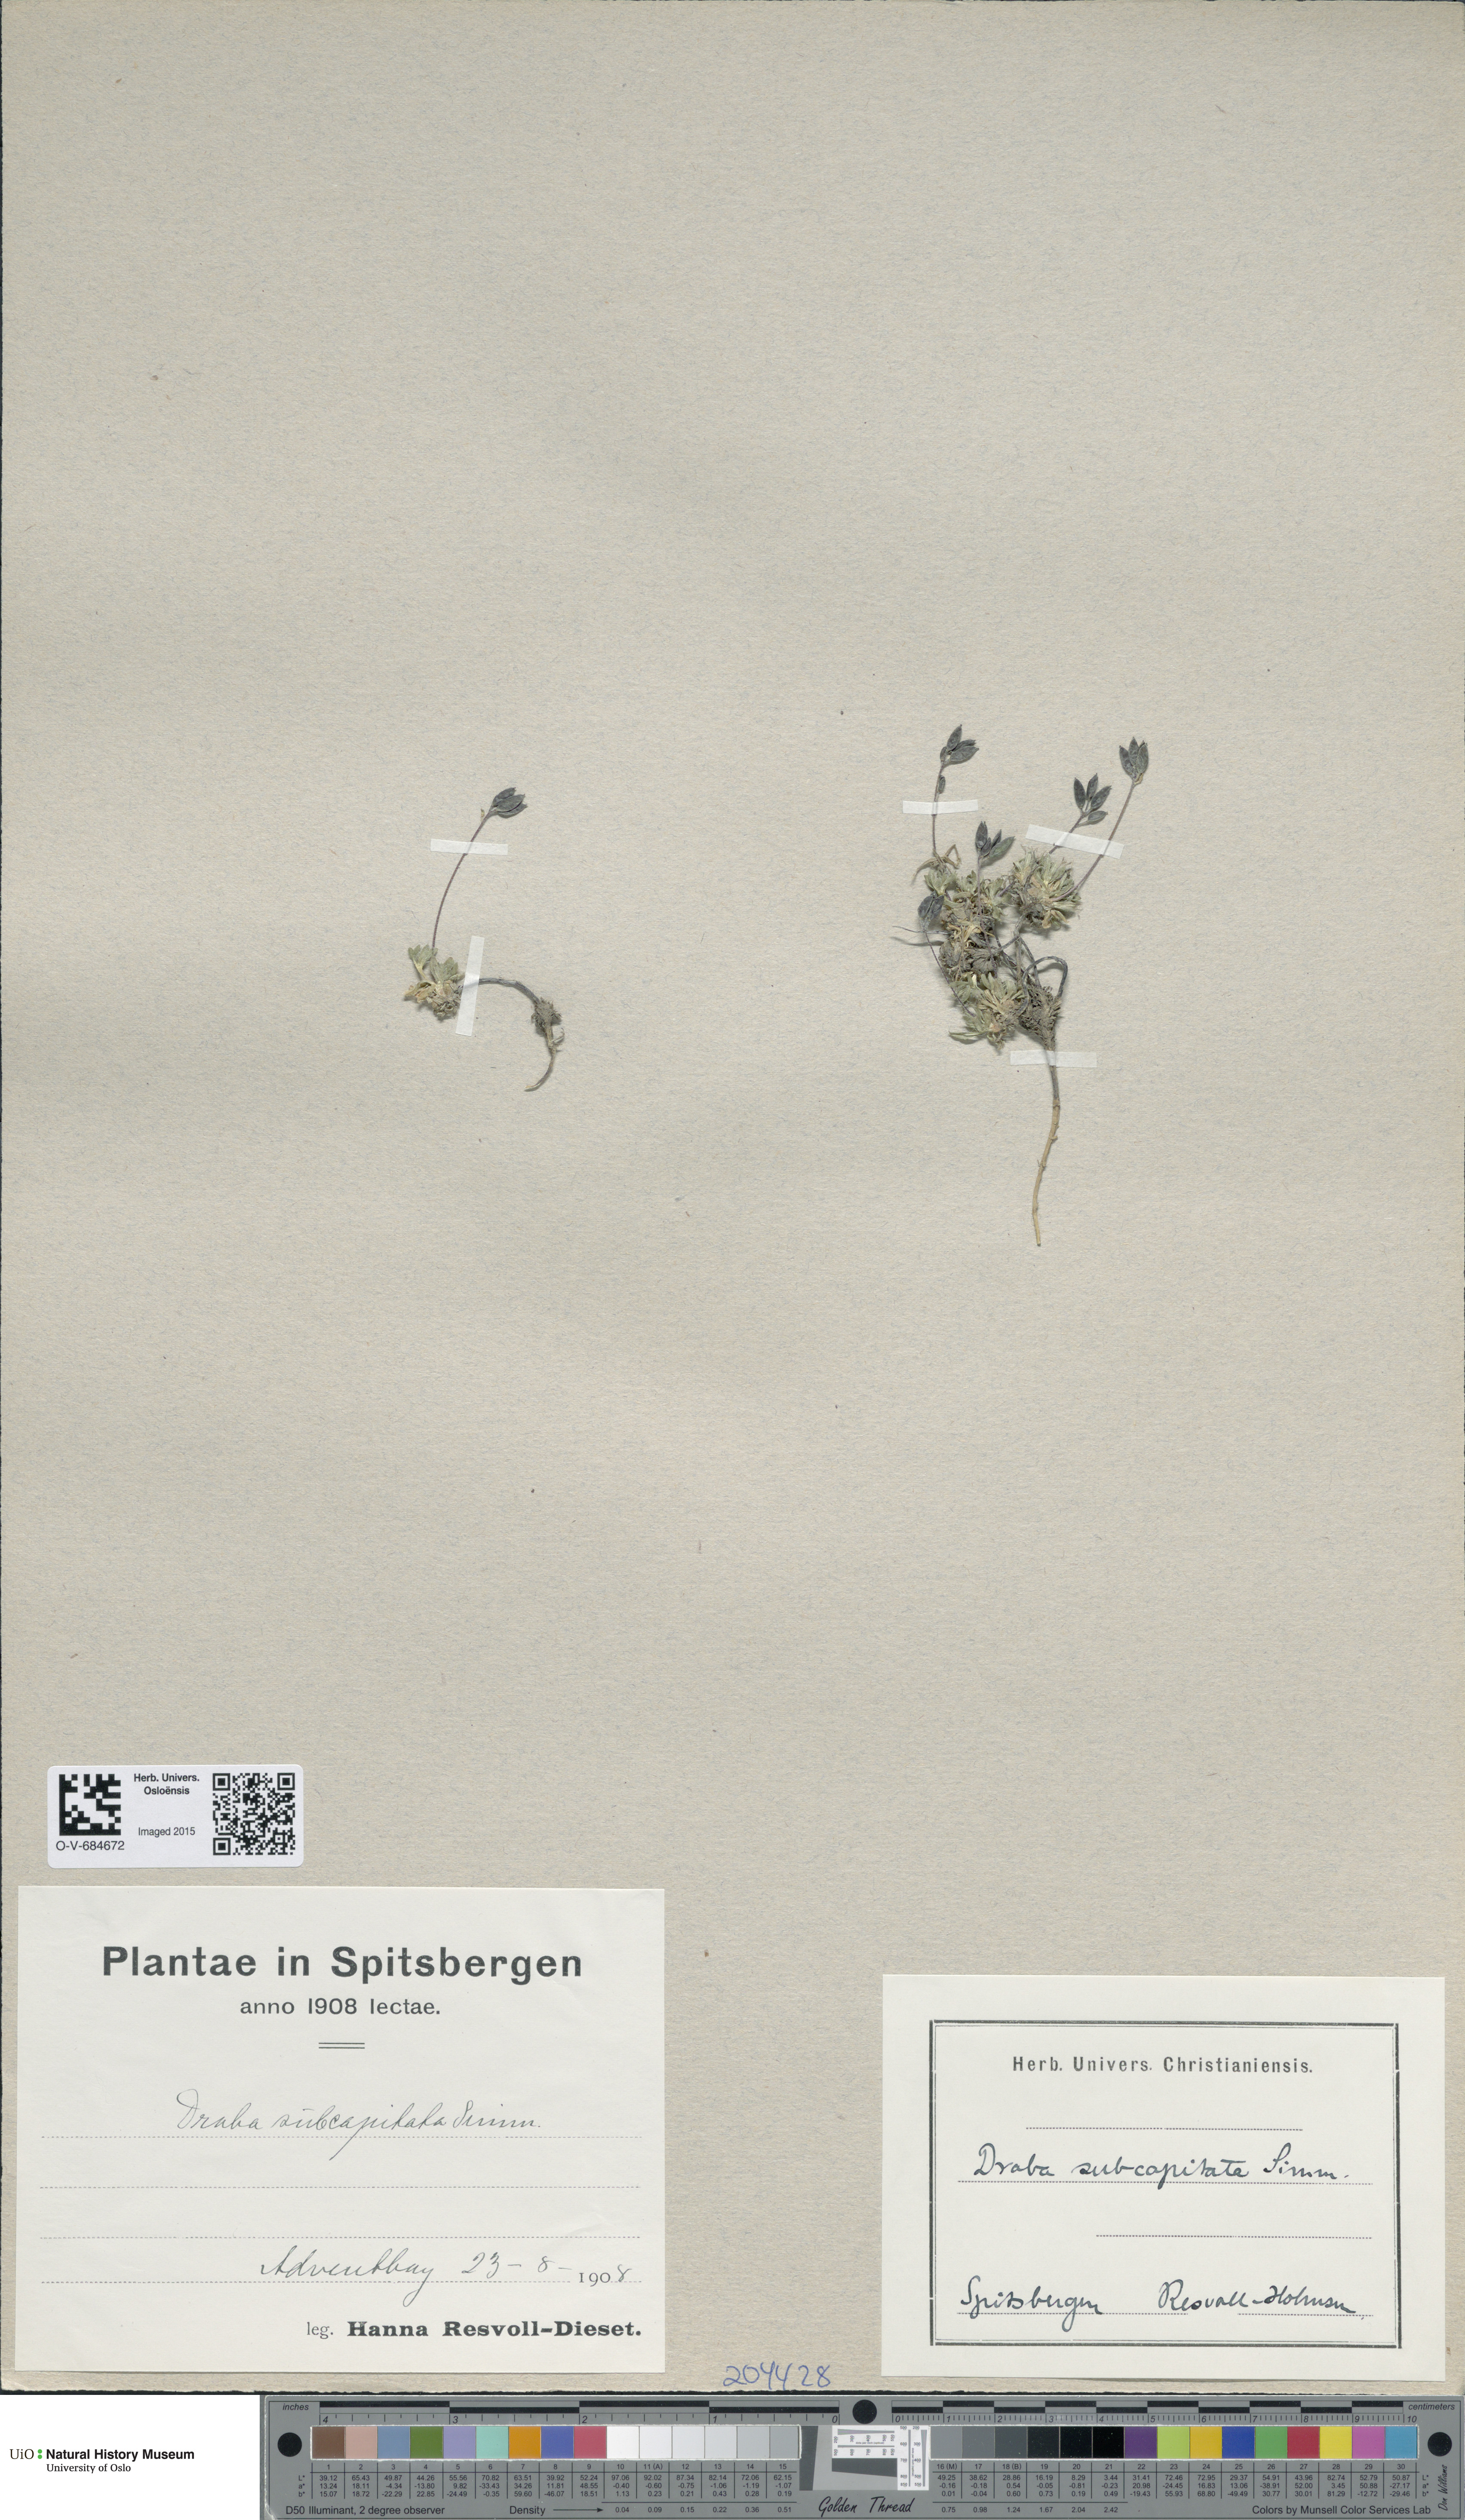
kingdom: Plantae
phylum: Tracheophyta
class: Magnoliopsida
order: Brassicales
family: Brassicaceae
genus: Draba
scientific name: Draba subcapitata
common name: Ellesmere island draba
